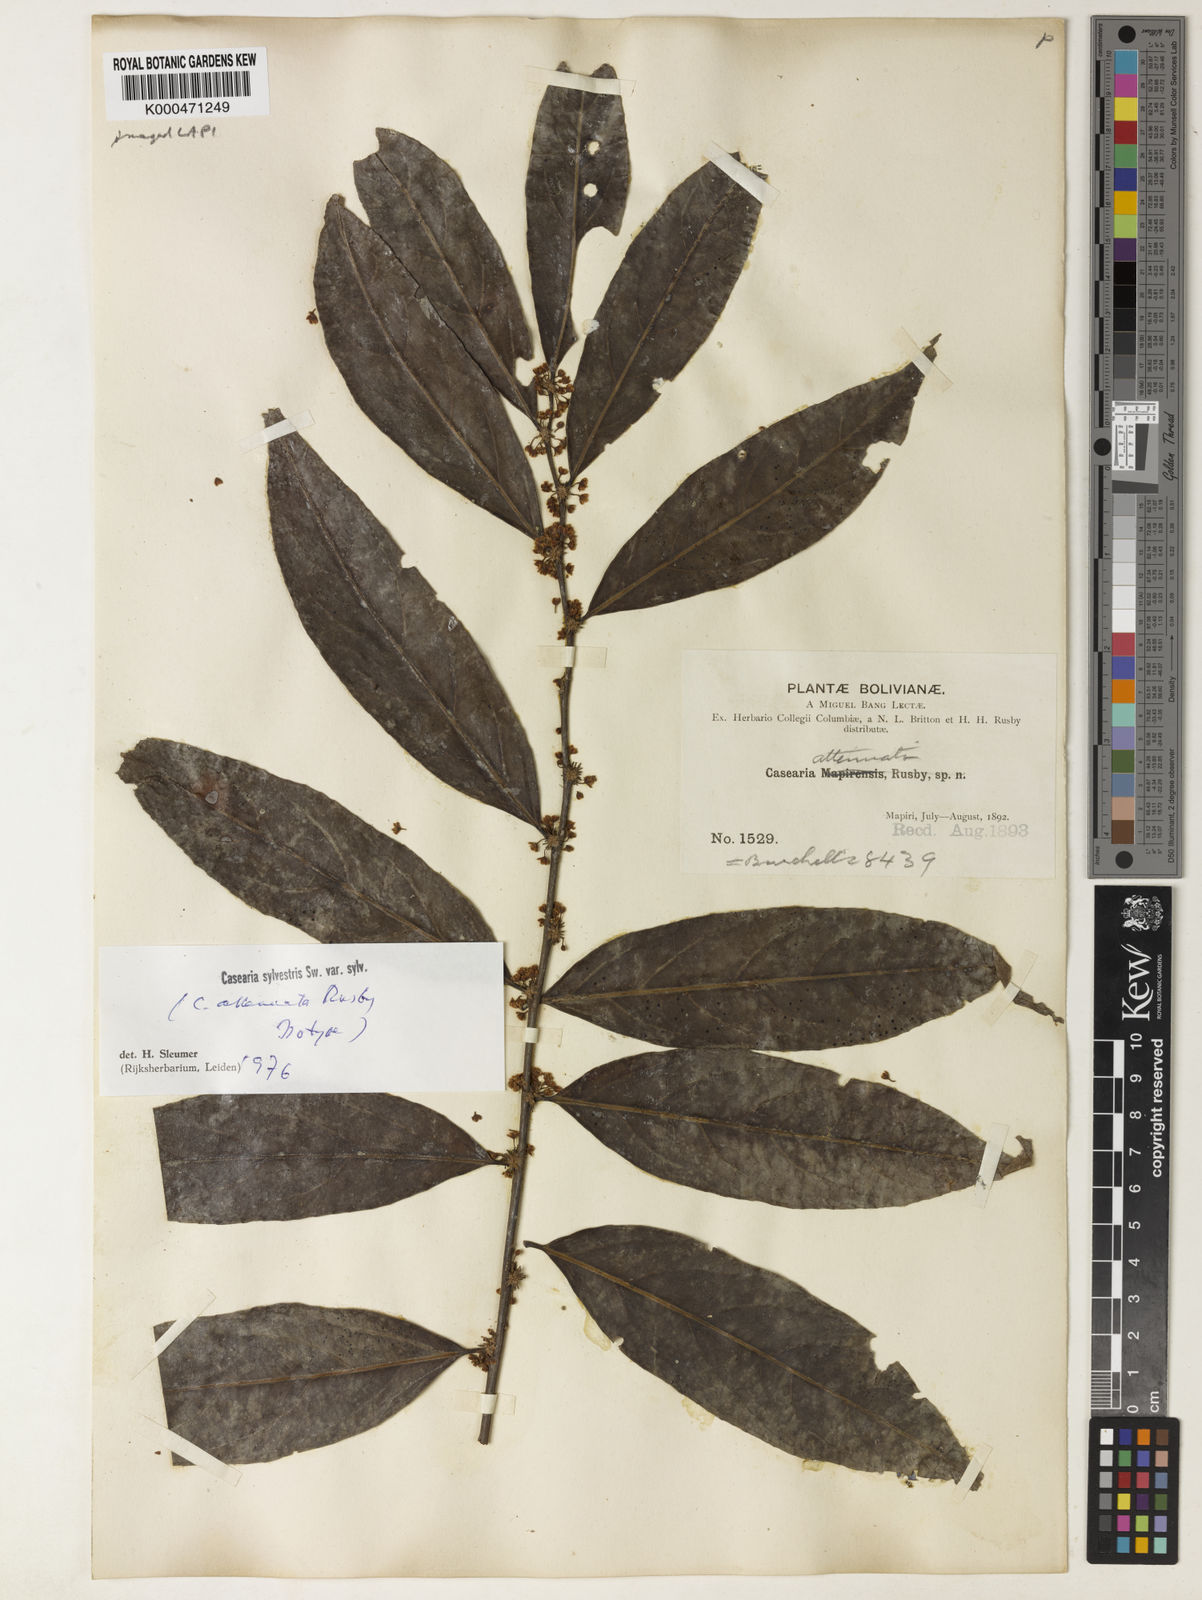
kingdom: Plantae
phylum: Tracheophyta
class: Magnoliopsida
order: Malpighiales
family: Salicaceae
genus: Casearia
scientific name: Casearia sylvestris
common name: Wild sage
